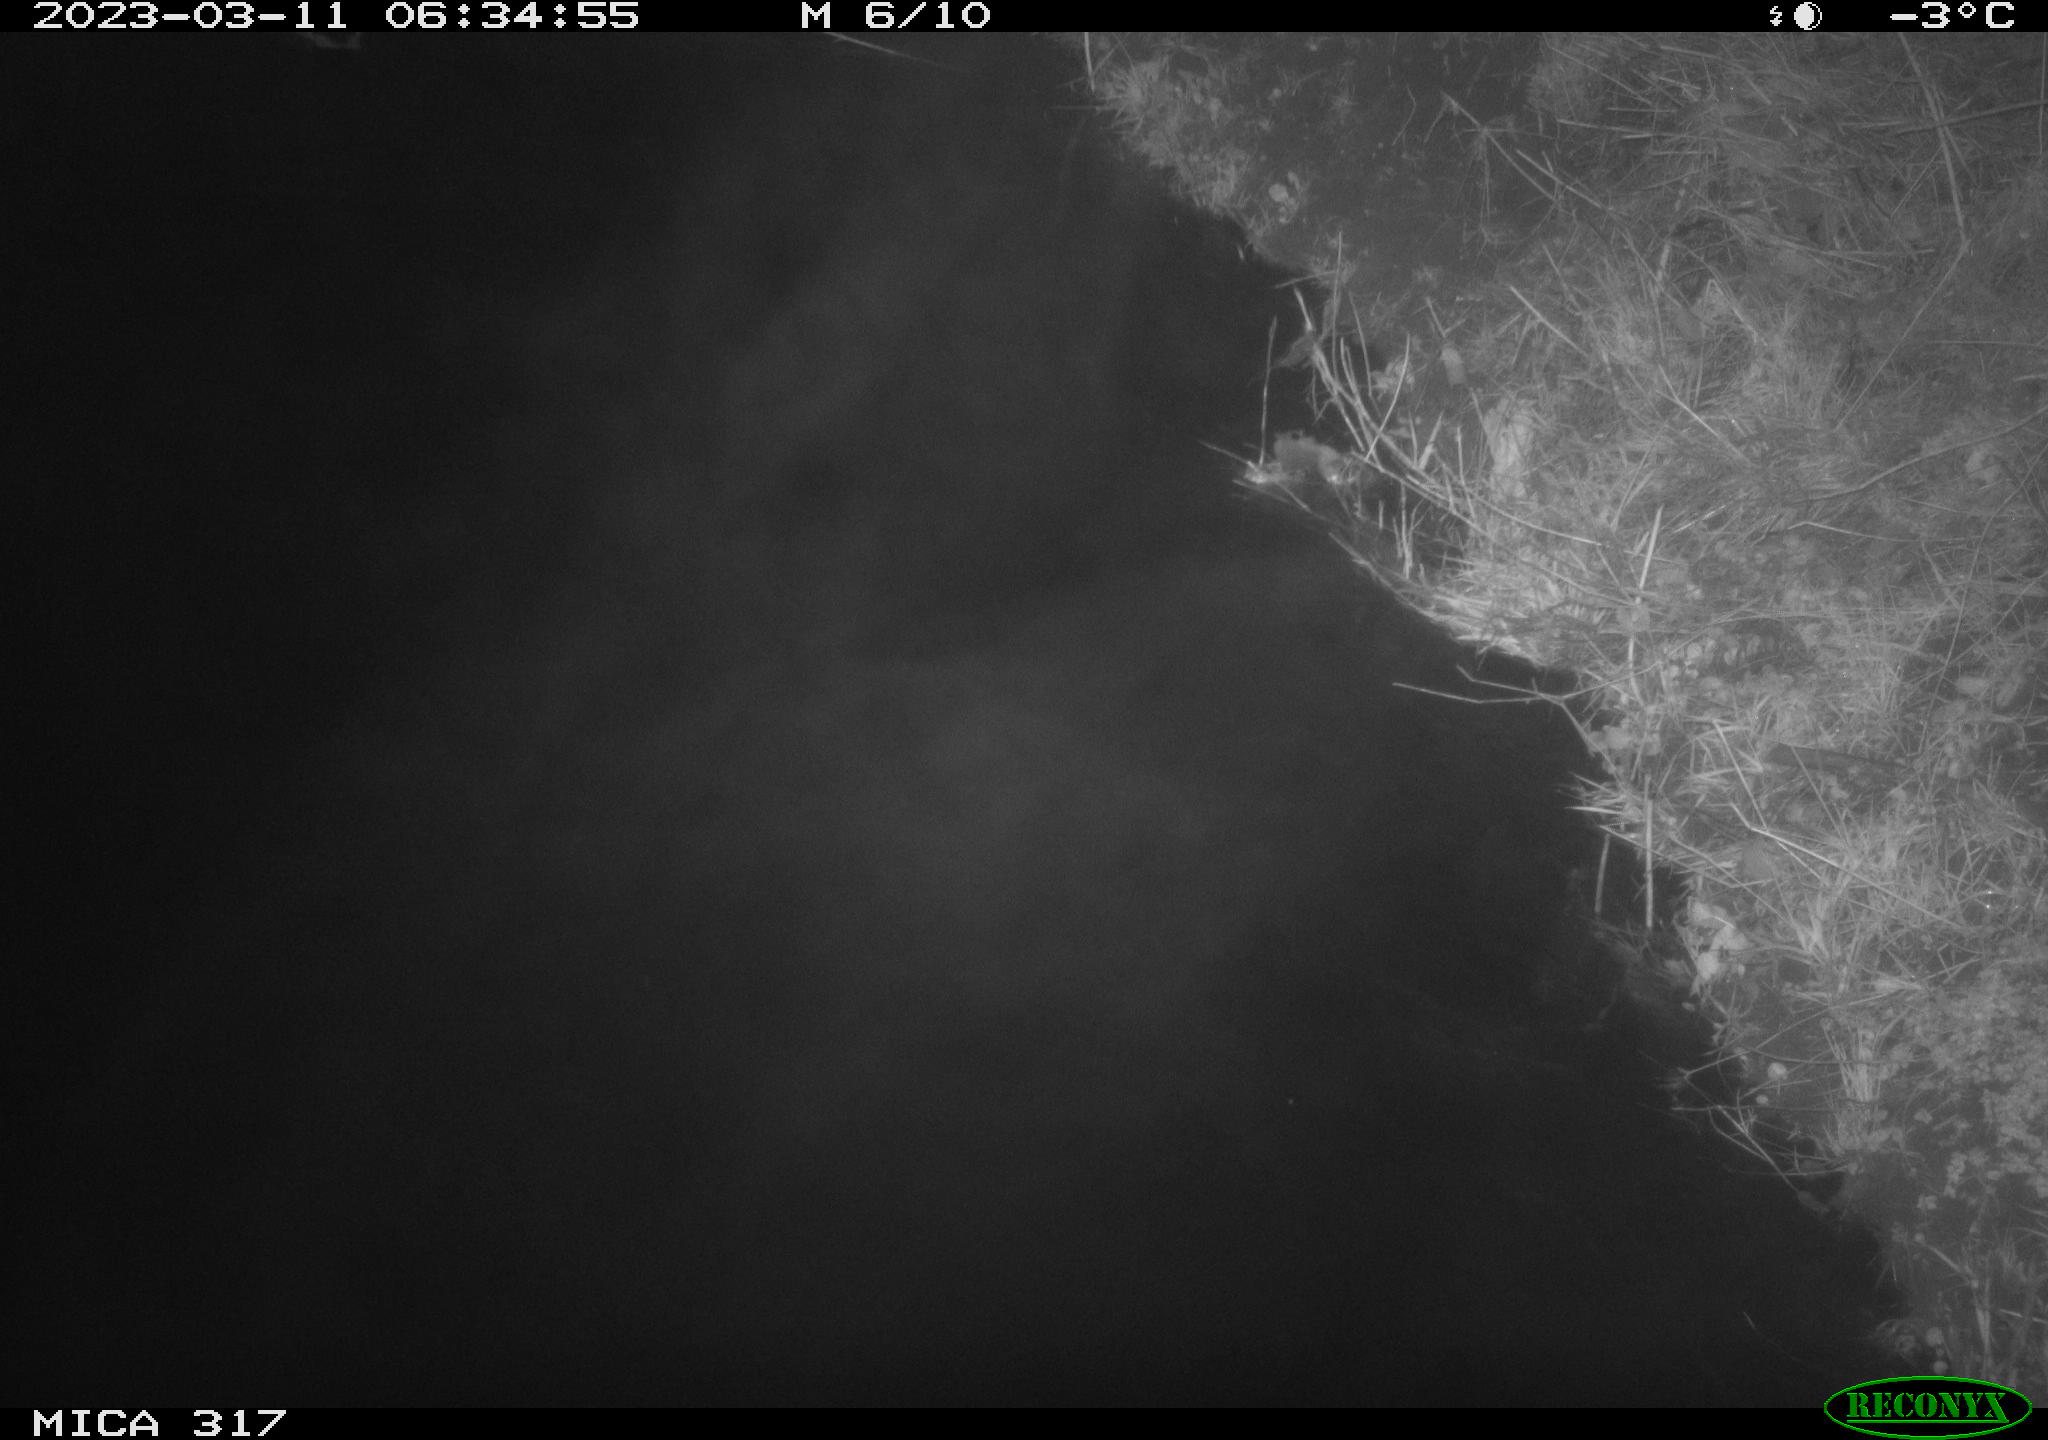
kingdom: Animalia
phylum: Chordata
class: Aves
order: Anseriformes
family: Anatidae
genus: Anas
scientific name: Anas
